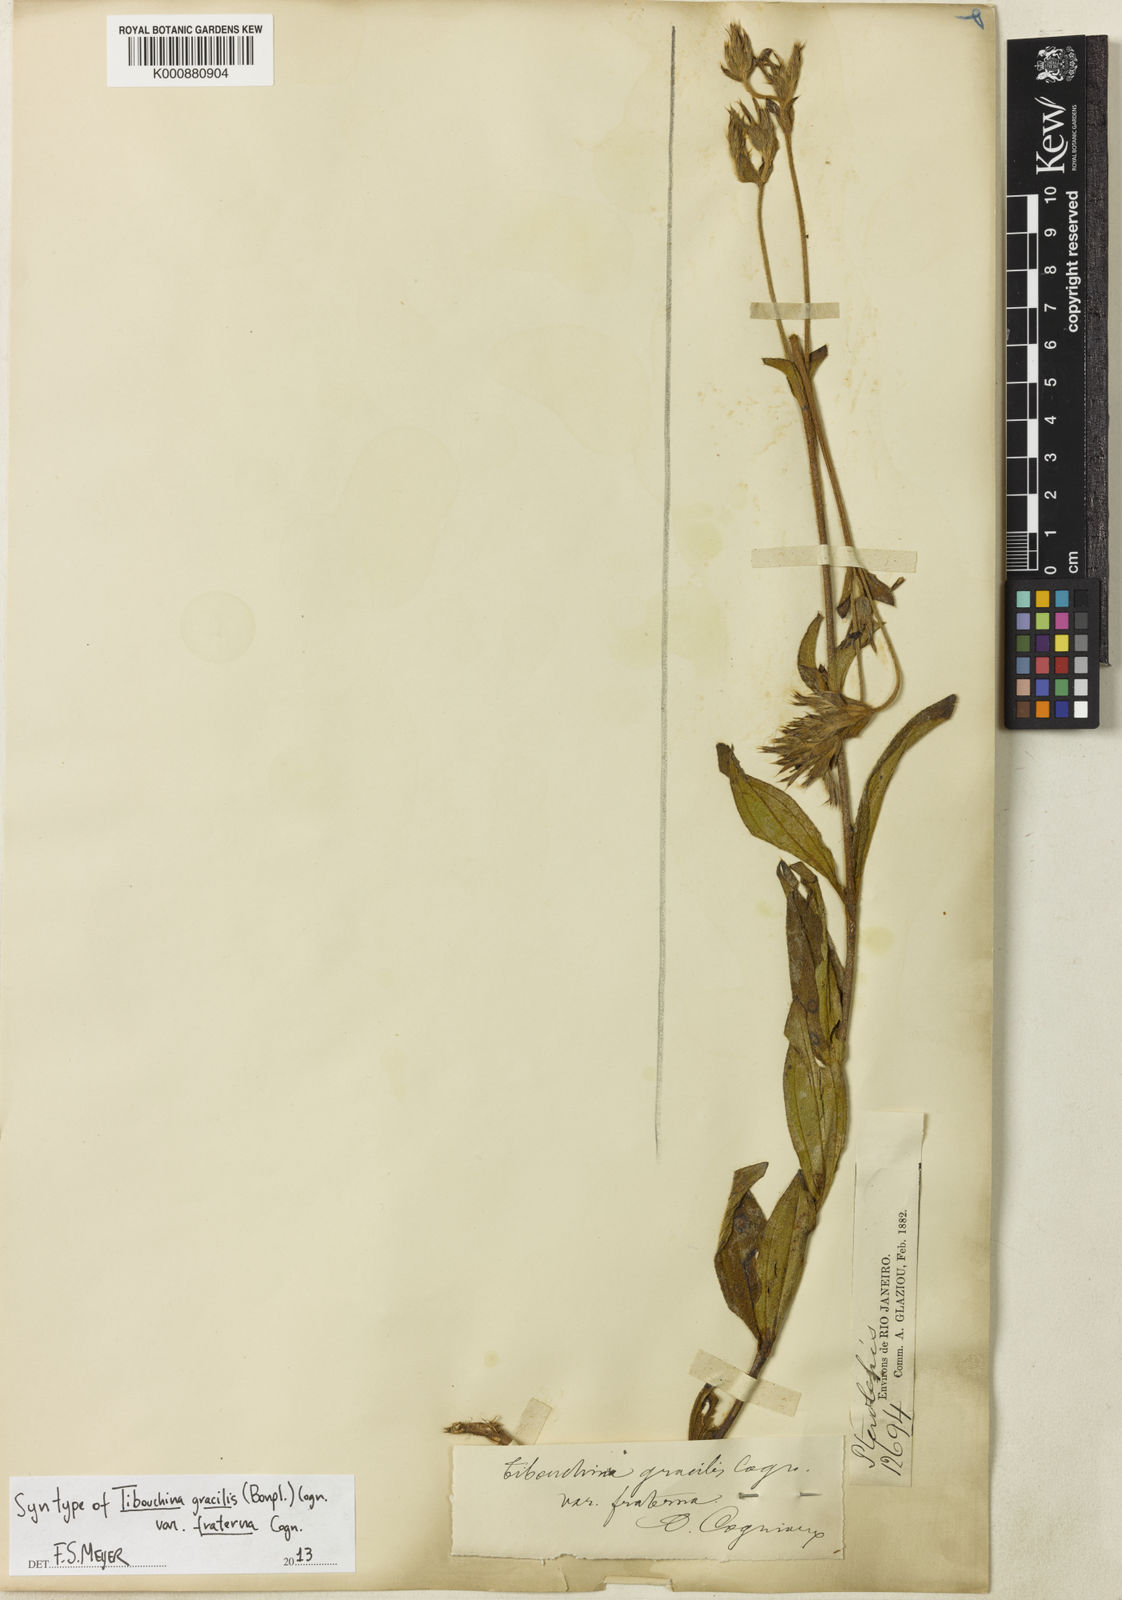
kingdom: Plantae
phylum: Tracheophyta
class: Magnoliopsida
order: Myrtales
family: Melastomataceae
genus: Chaetogastra
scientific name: Chaetogastra gracilis
